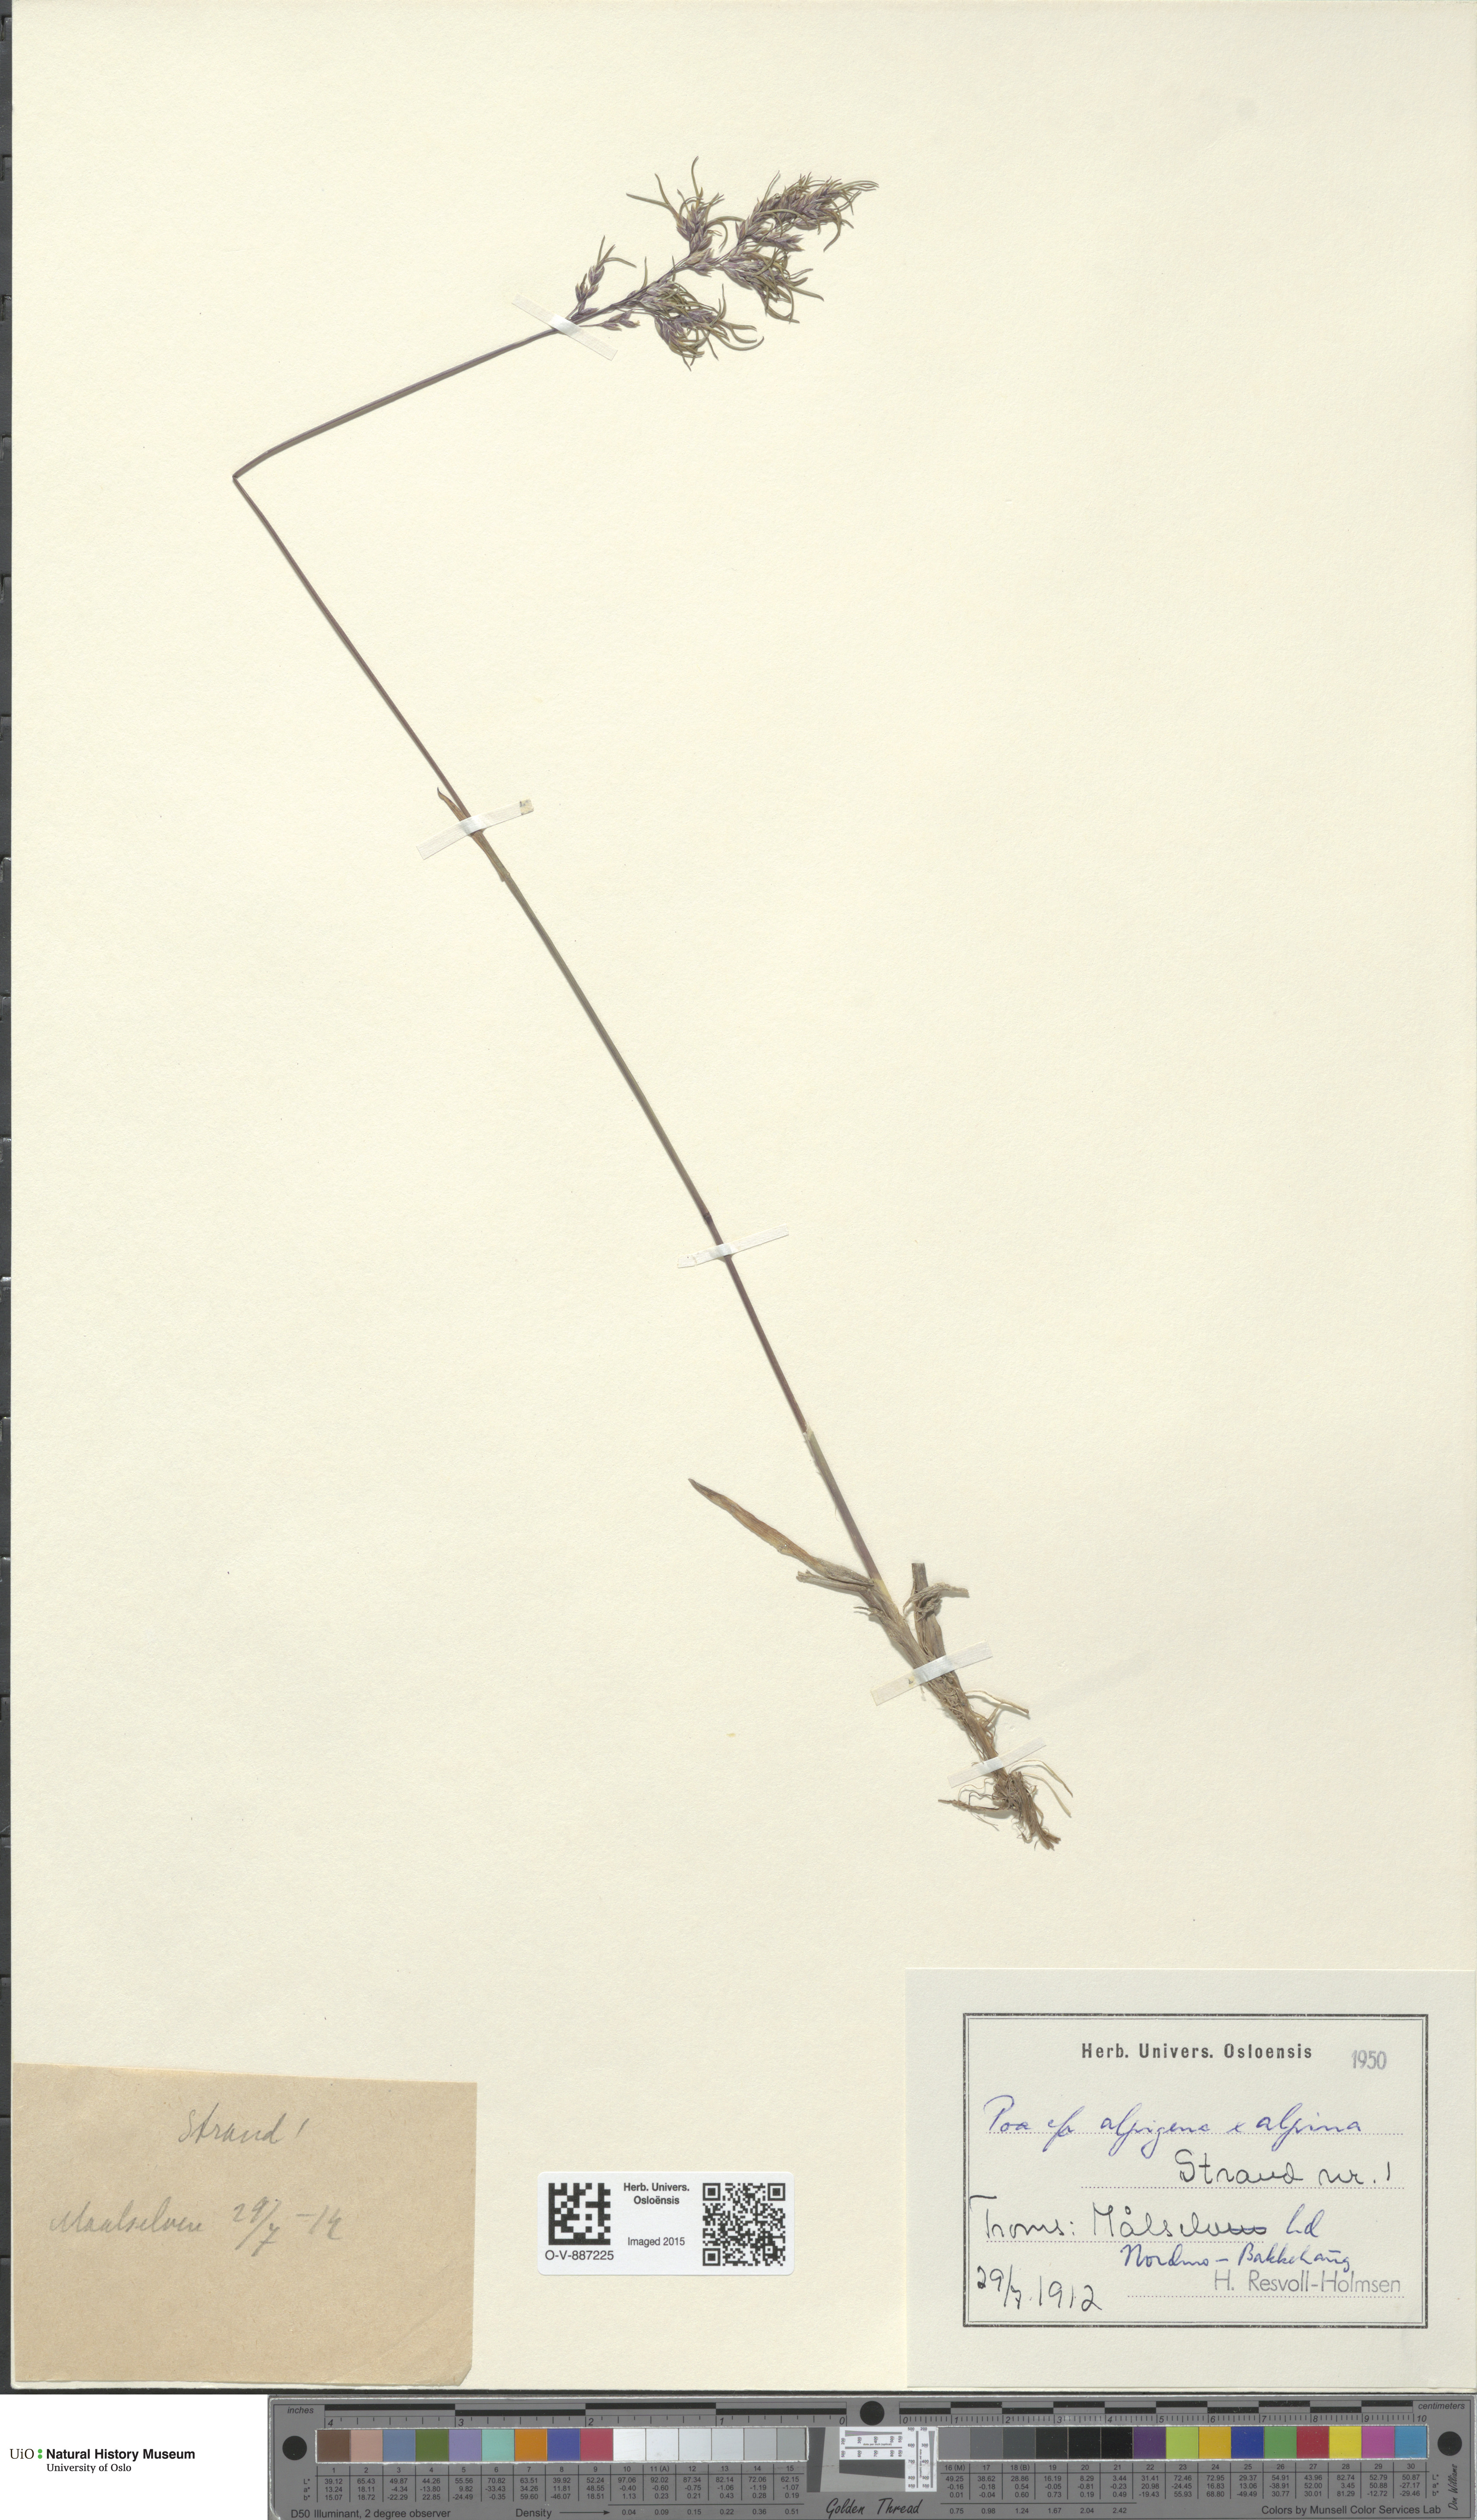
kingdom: Plantae
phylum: Tracheophyta
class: Liliopsida
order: Poales
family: Poaceae
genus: Poa
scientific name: Poa
